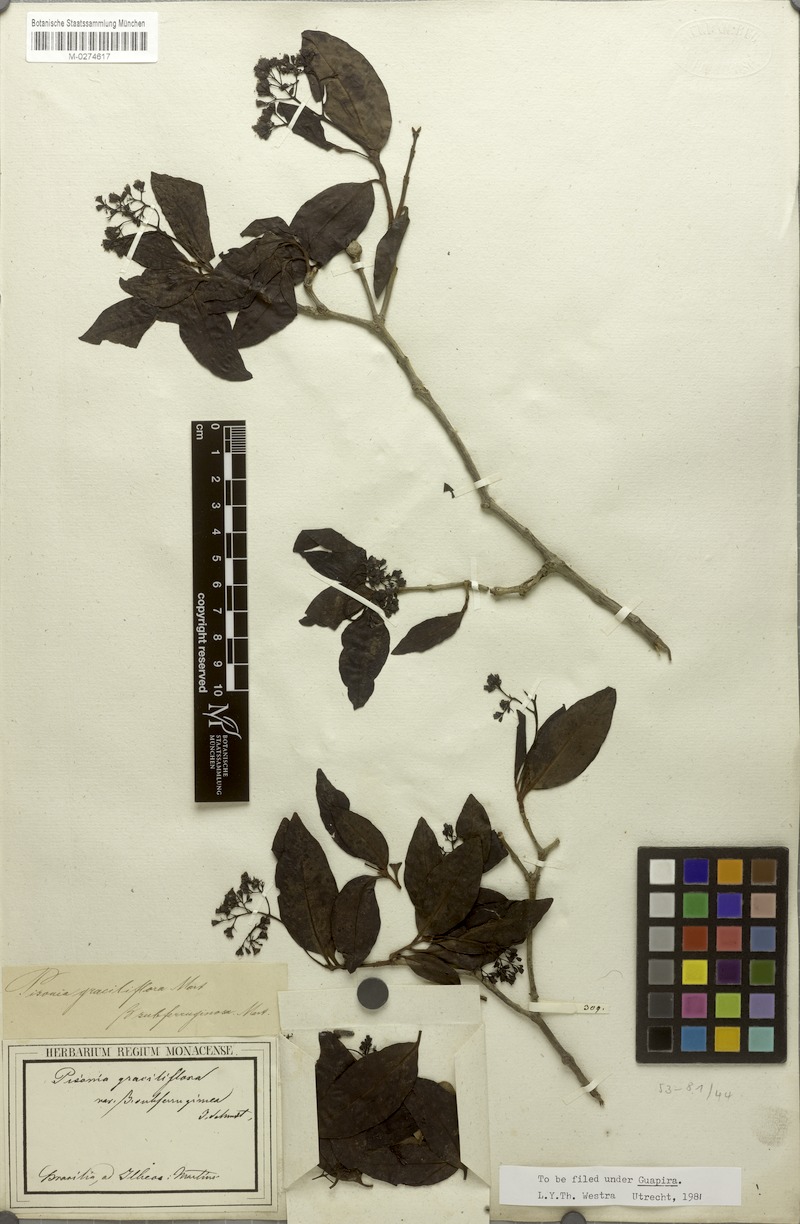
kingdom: Plantae
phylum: Tracheophyta
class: Magnoliopsida
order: Caryophyllales
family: Nyctaginaceae
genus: Guapira
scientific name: Guapira graciliflora
